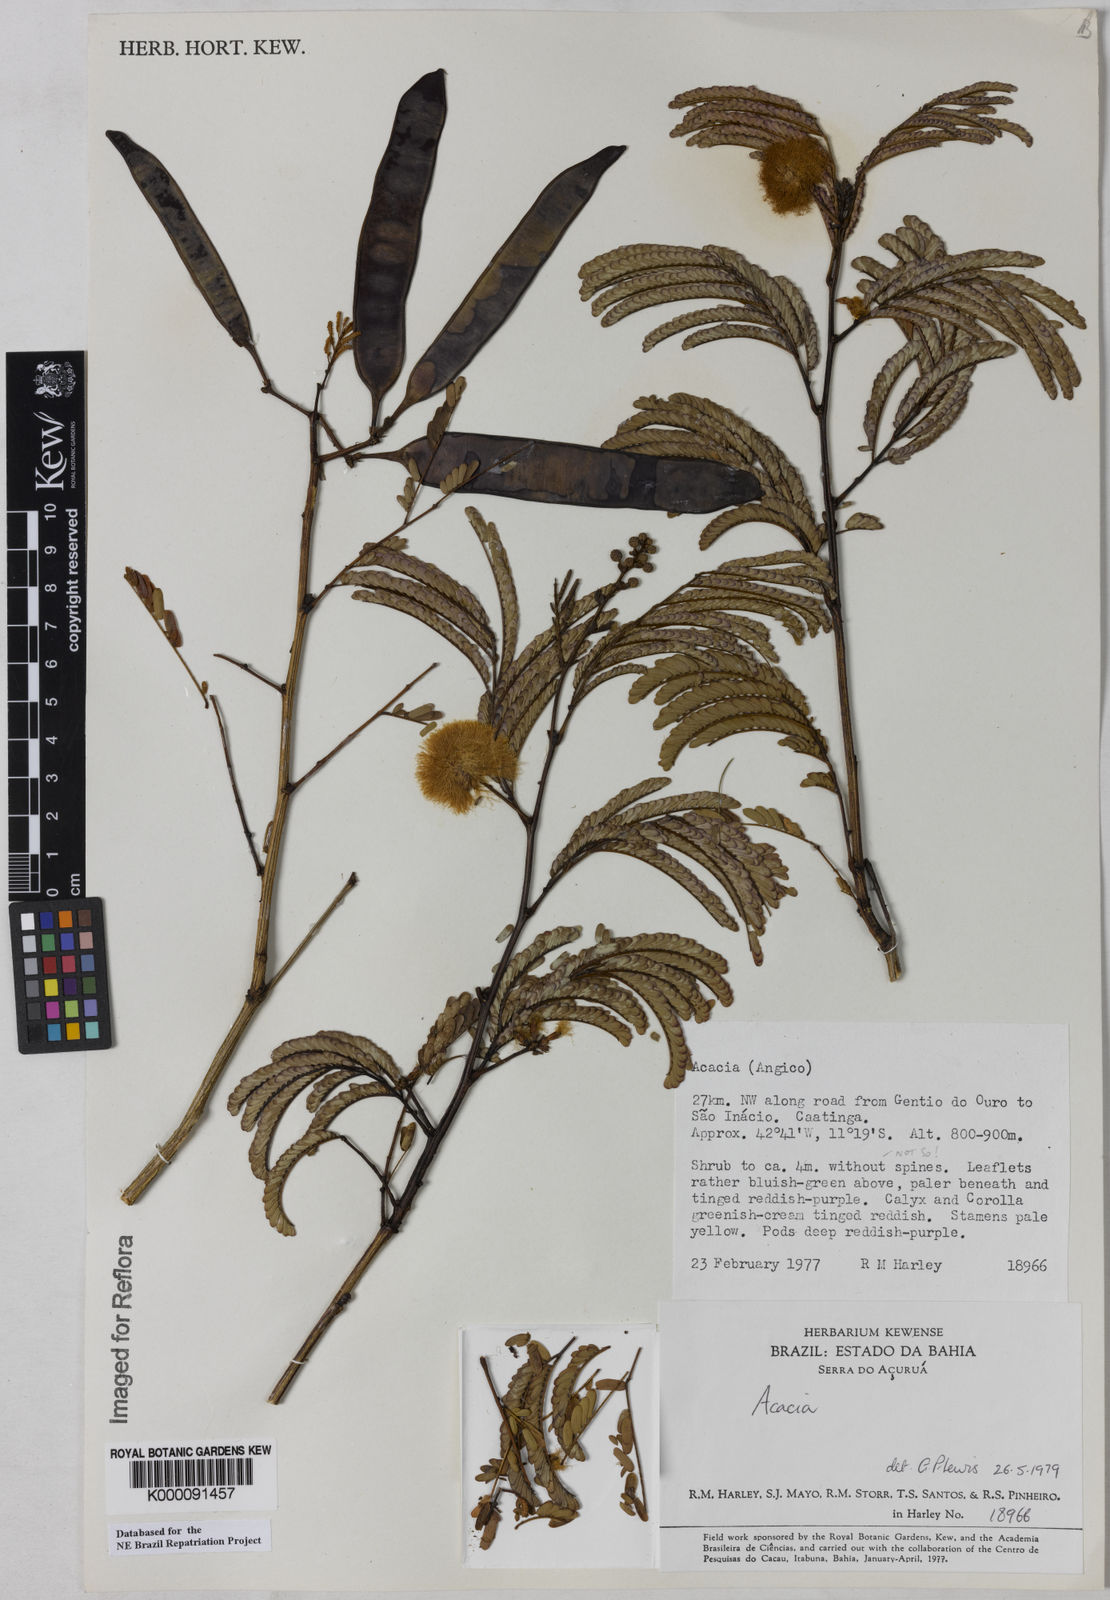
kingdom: Plantae
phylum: Tracheophyta
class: Magnoliopsida
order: Fabales
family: Fabaceae
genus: Acacia
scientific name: Acacia
